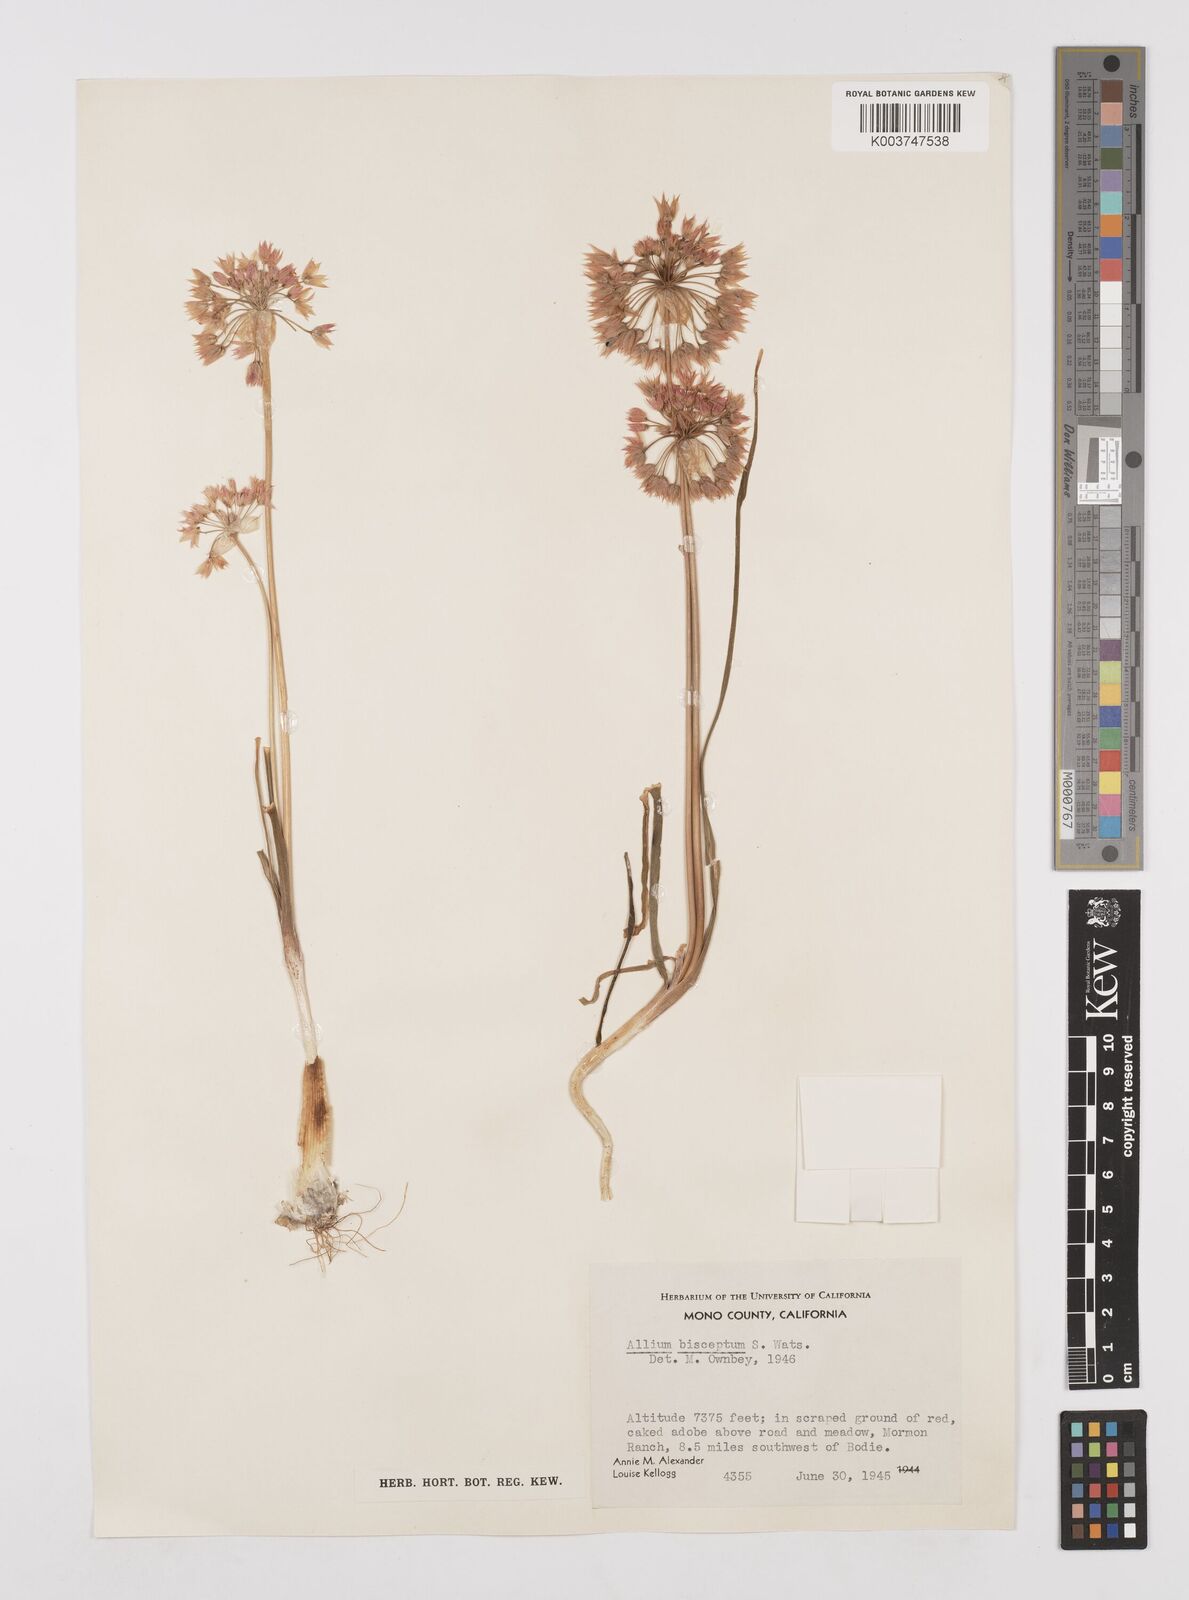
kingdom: Plantae
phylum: Tracheophyta
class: Liliopsida
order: Asparagales
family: Amaryllidaceae
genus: Allium
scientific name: Allium bisceptrum
